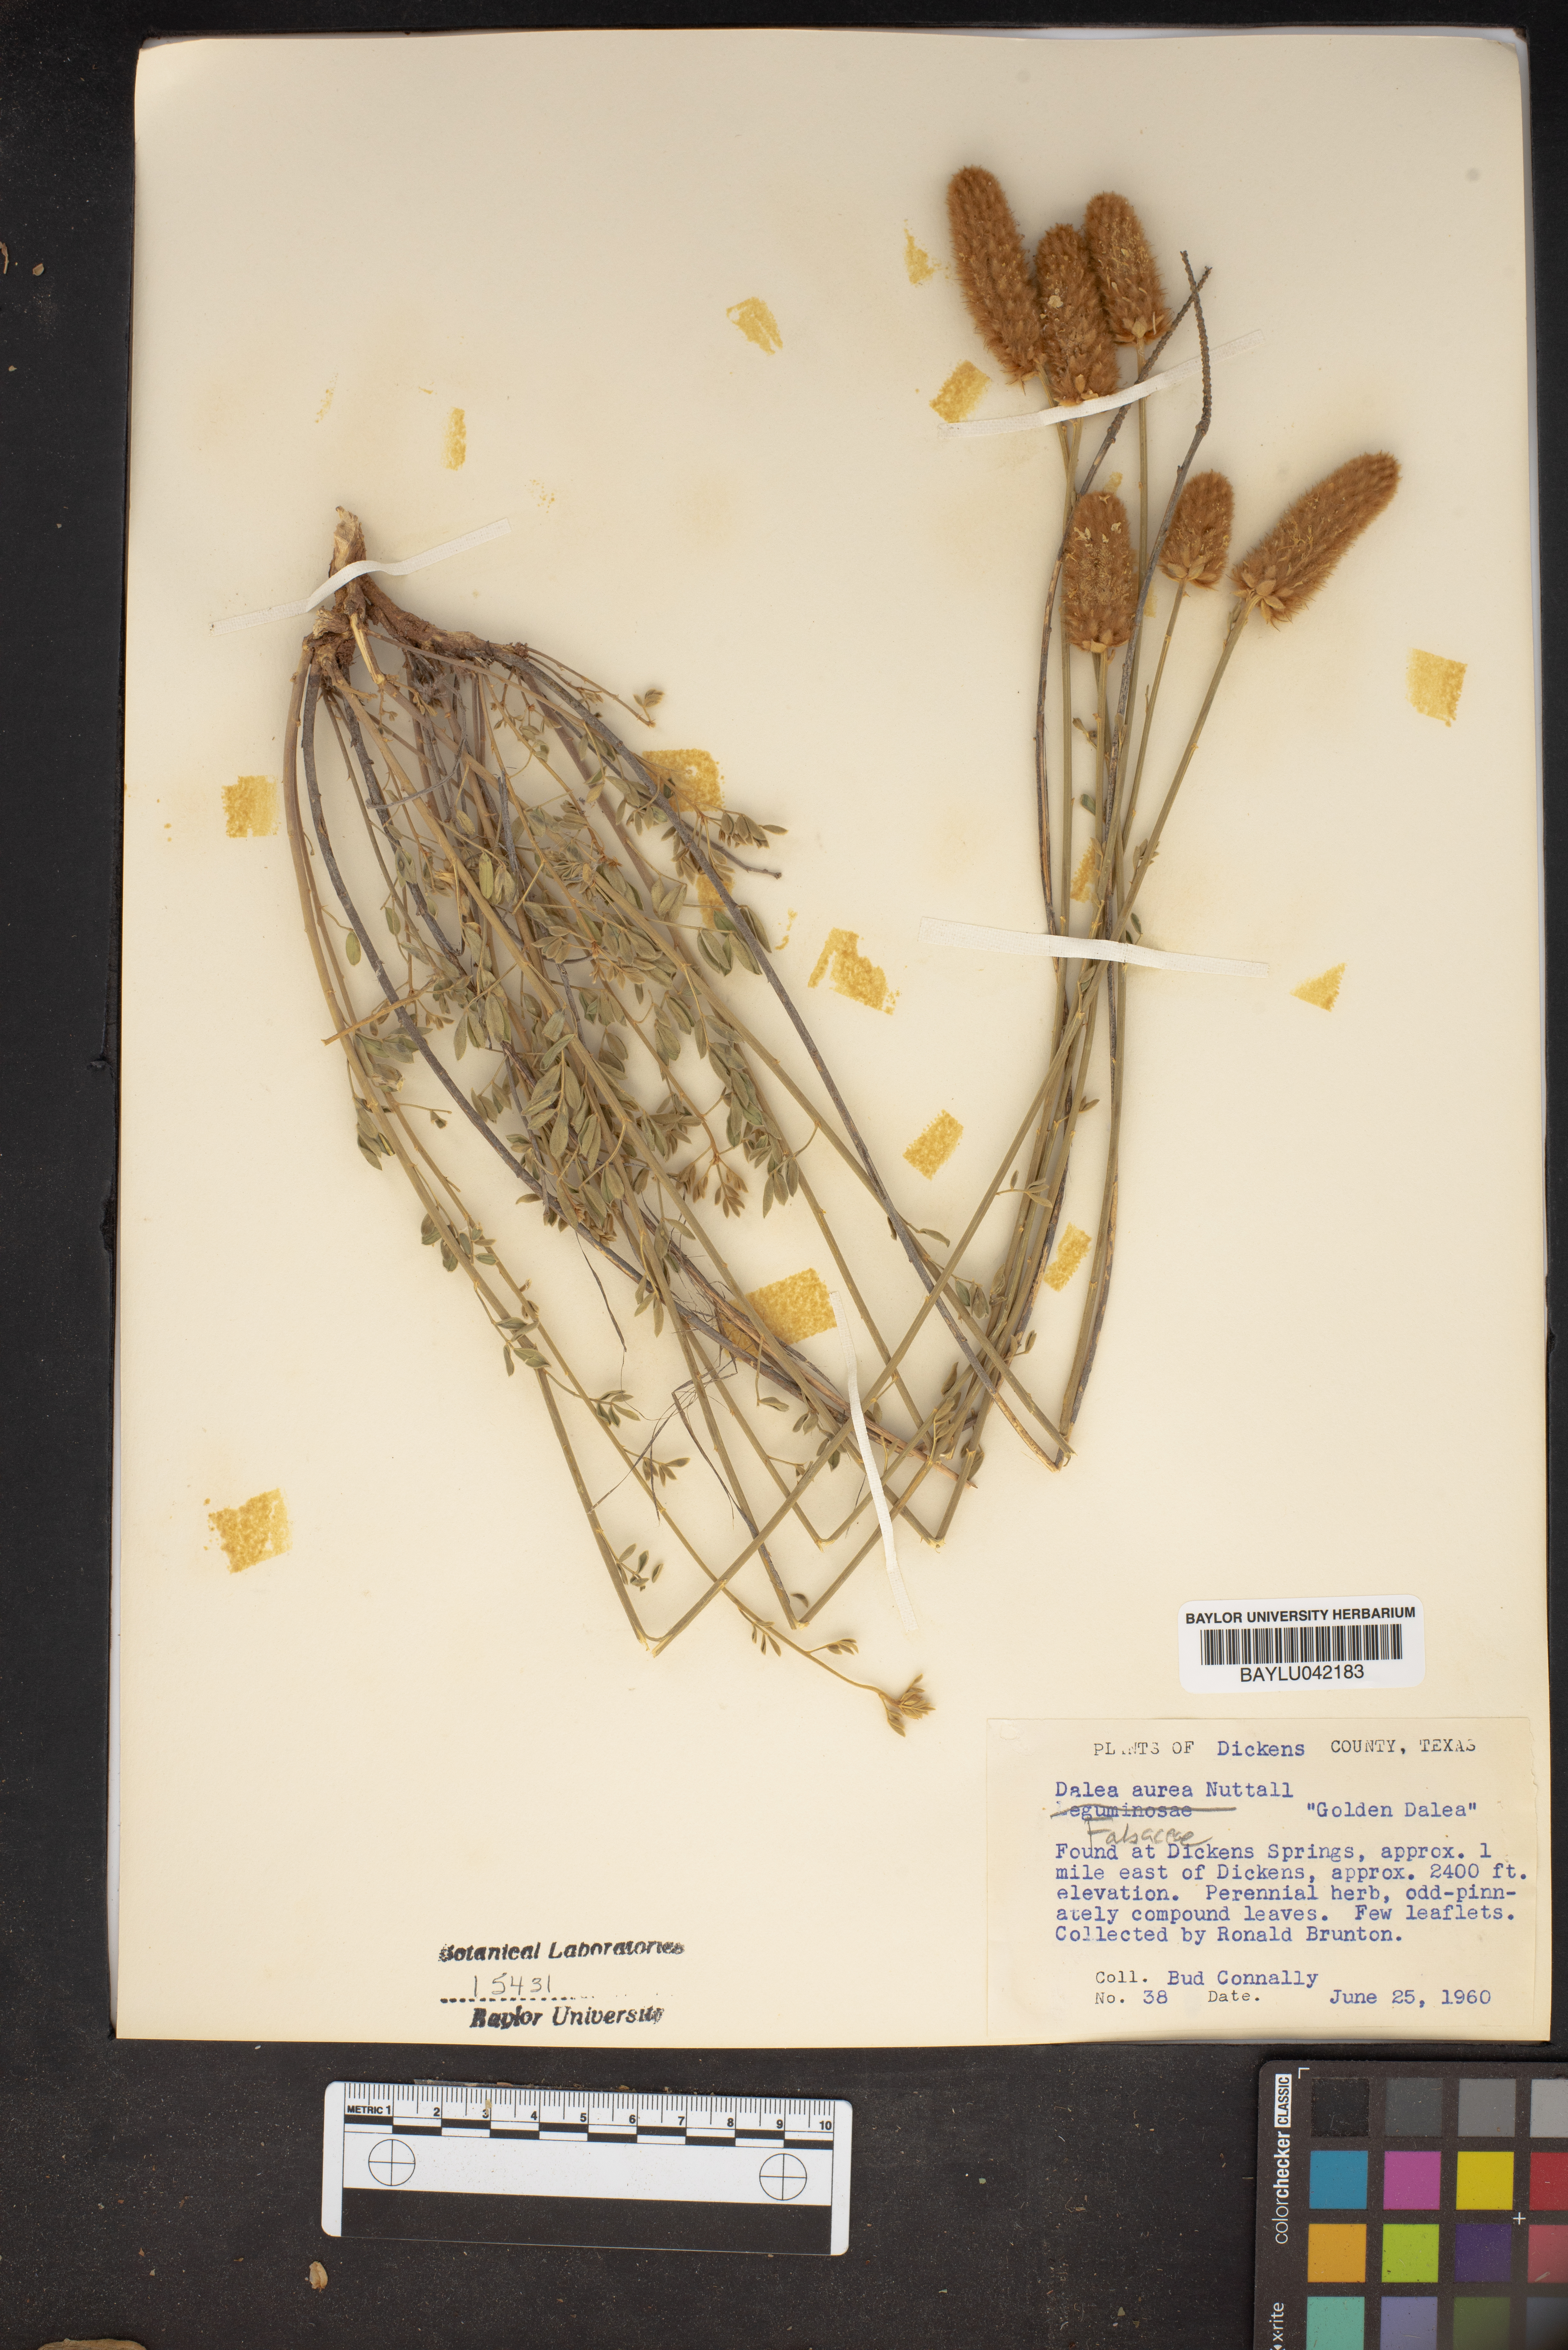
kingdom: Plantae
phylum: Tracheophyta
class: Magnoliopsida
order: Fabales
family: Fabaceae
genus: Dalea
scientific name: Dalea aurea
